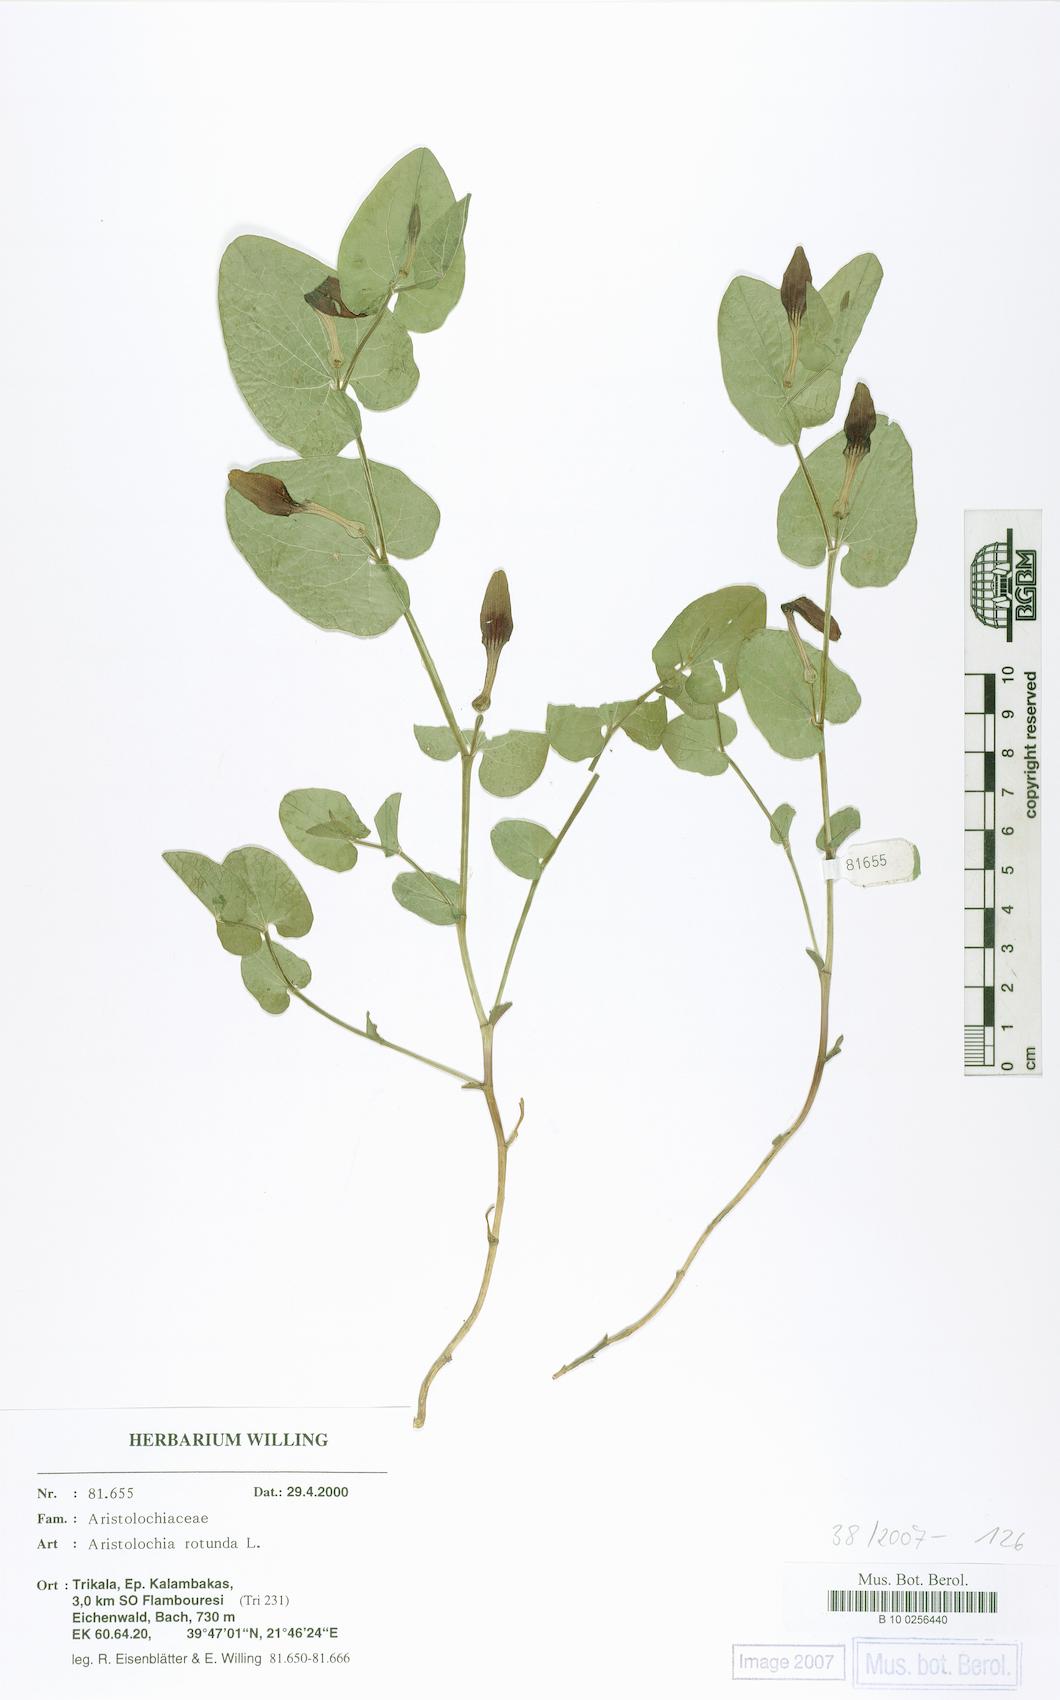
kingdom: Plantae
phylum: Tracheophyta
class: Magnoliopsida
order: Piperales
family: Aristolochiaceae
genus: Aristolochia
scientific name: Aristolochia rotunda
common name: Smearwort
